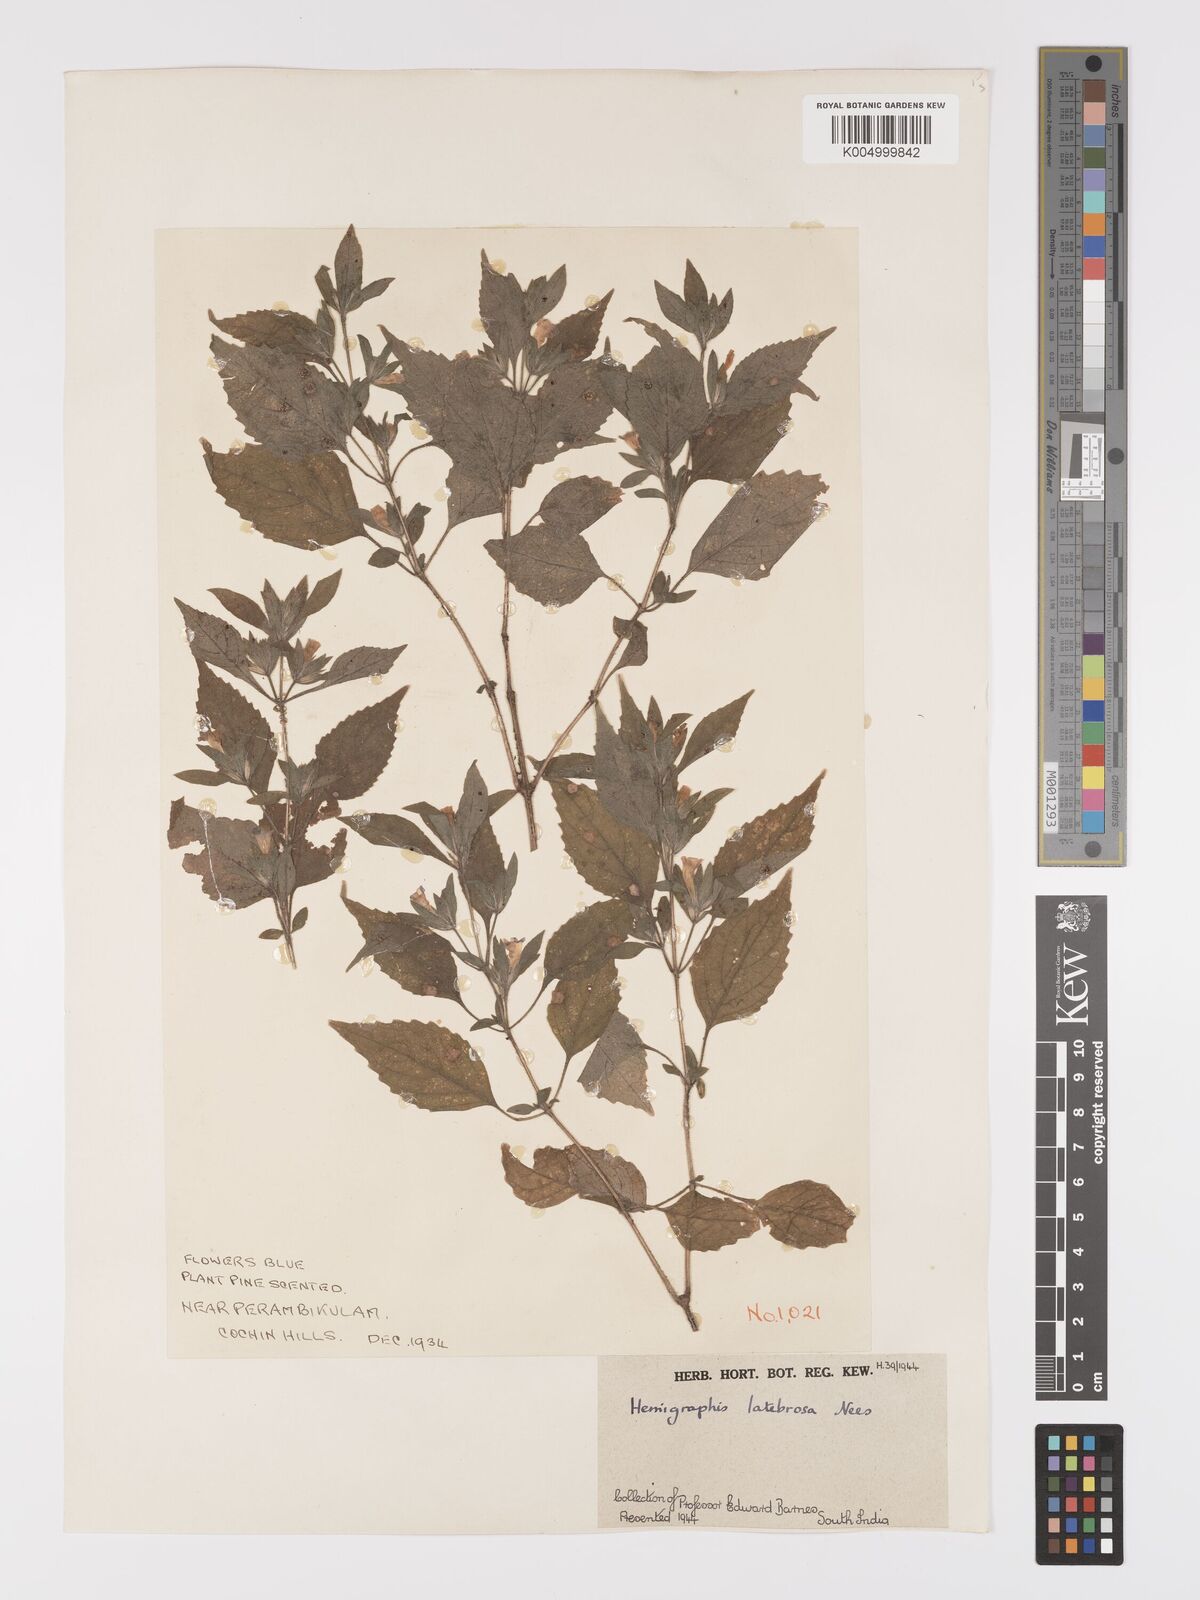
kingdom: Plantae
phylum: Tracheophyta
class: Magnoliopsida
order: Lamiales
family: Acanthaceae
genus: Strobilanthes
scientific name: Strobilanthes pavala
